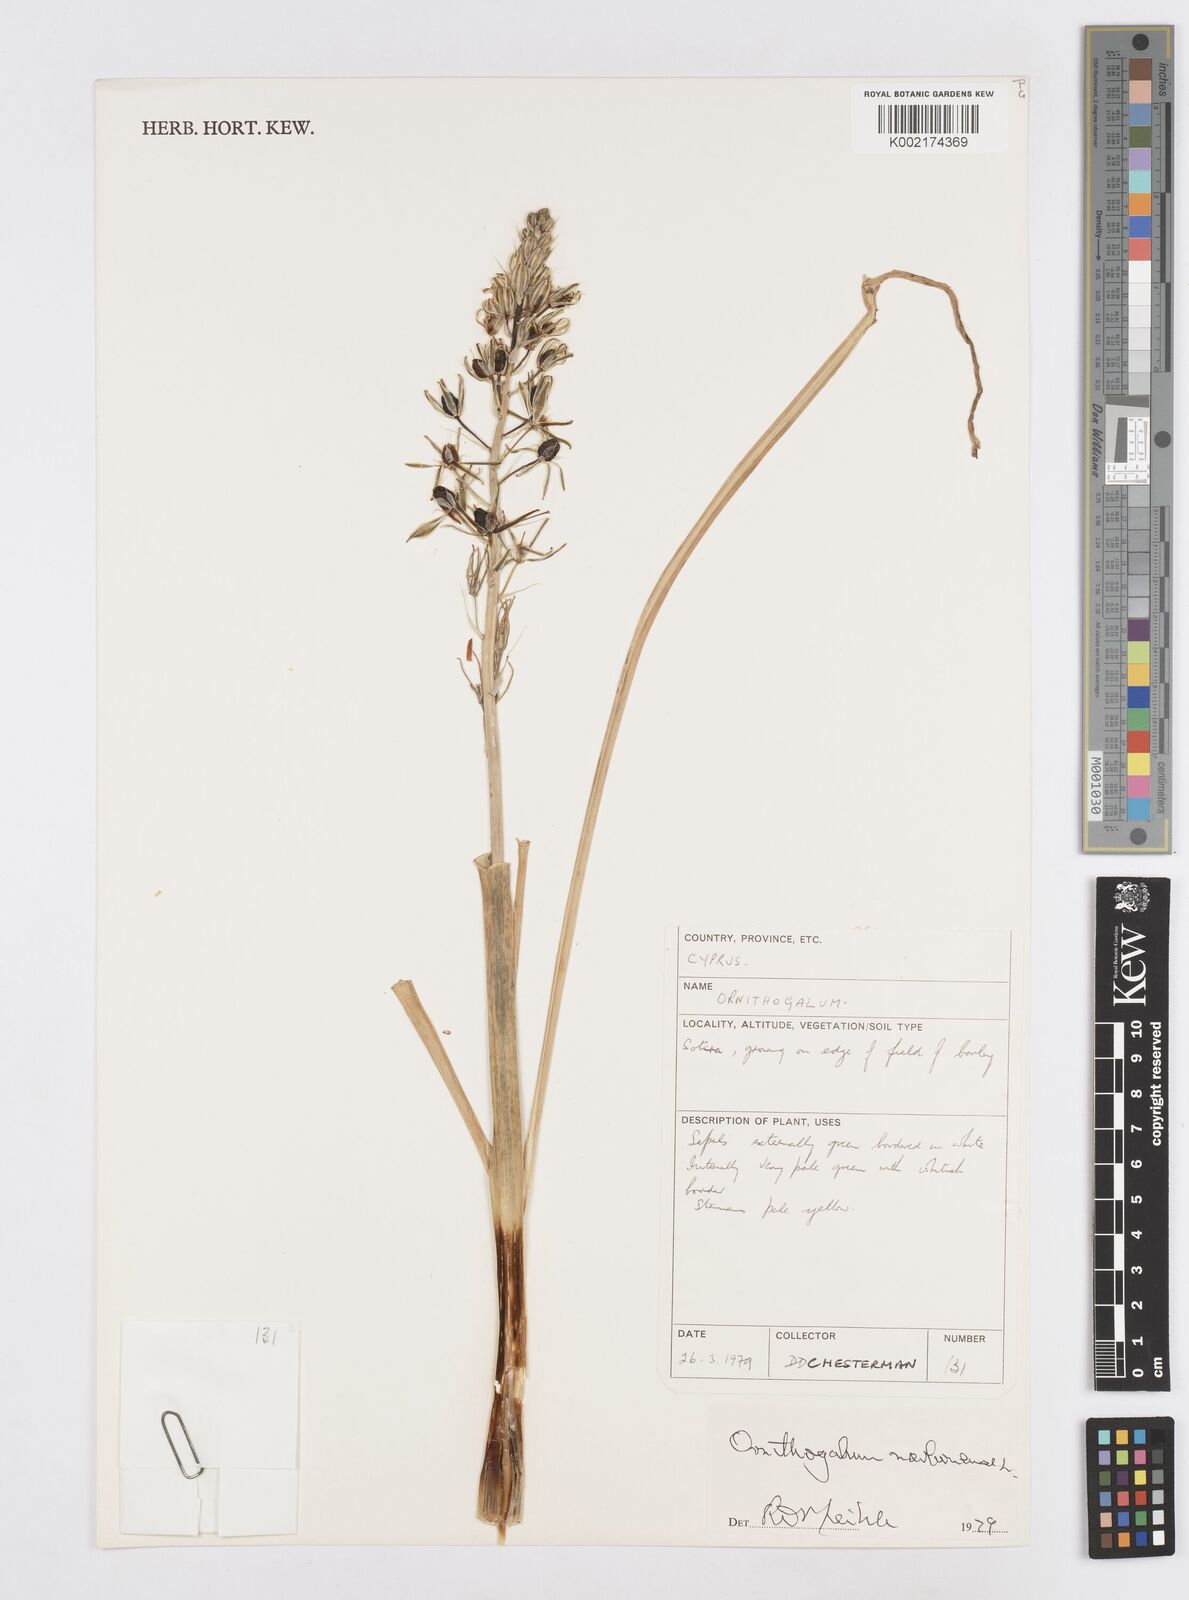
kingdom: Plantae
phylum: Tracheophyta
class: Liliopsida
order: Asparagales
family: Asparagaceae
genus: Ornithogalum
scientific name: Ornithogalum narbonense
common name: Bath-asparagus
